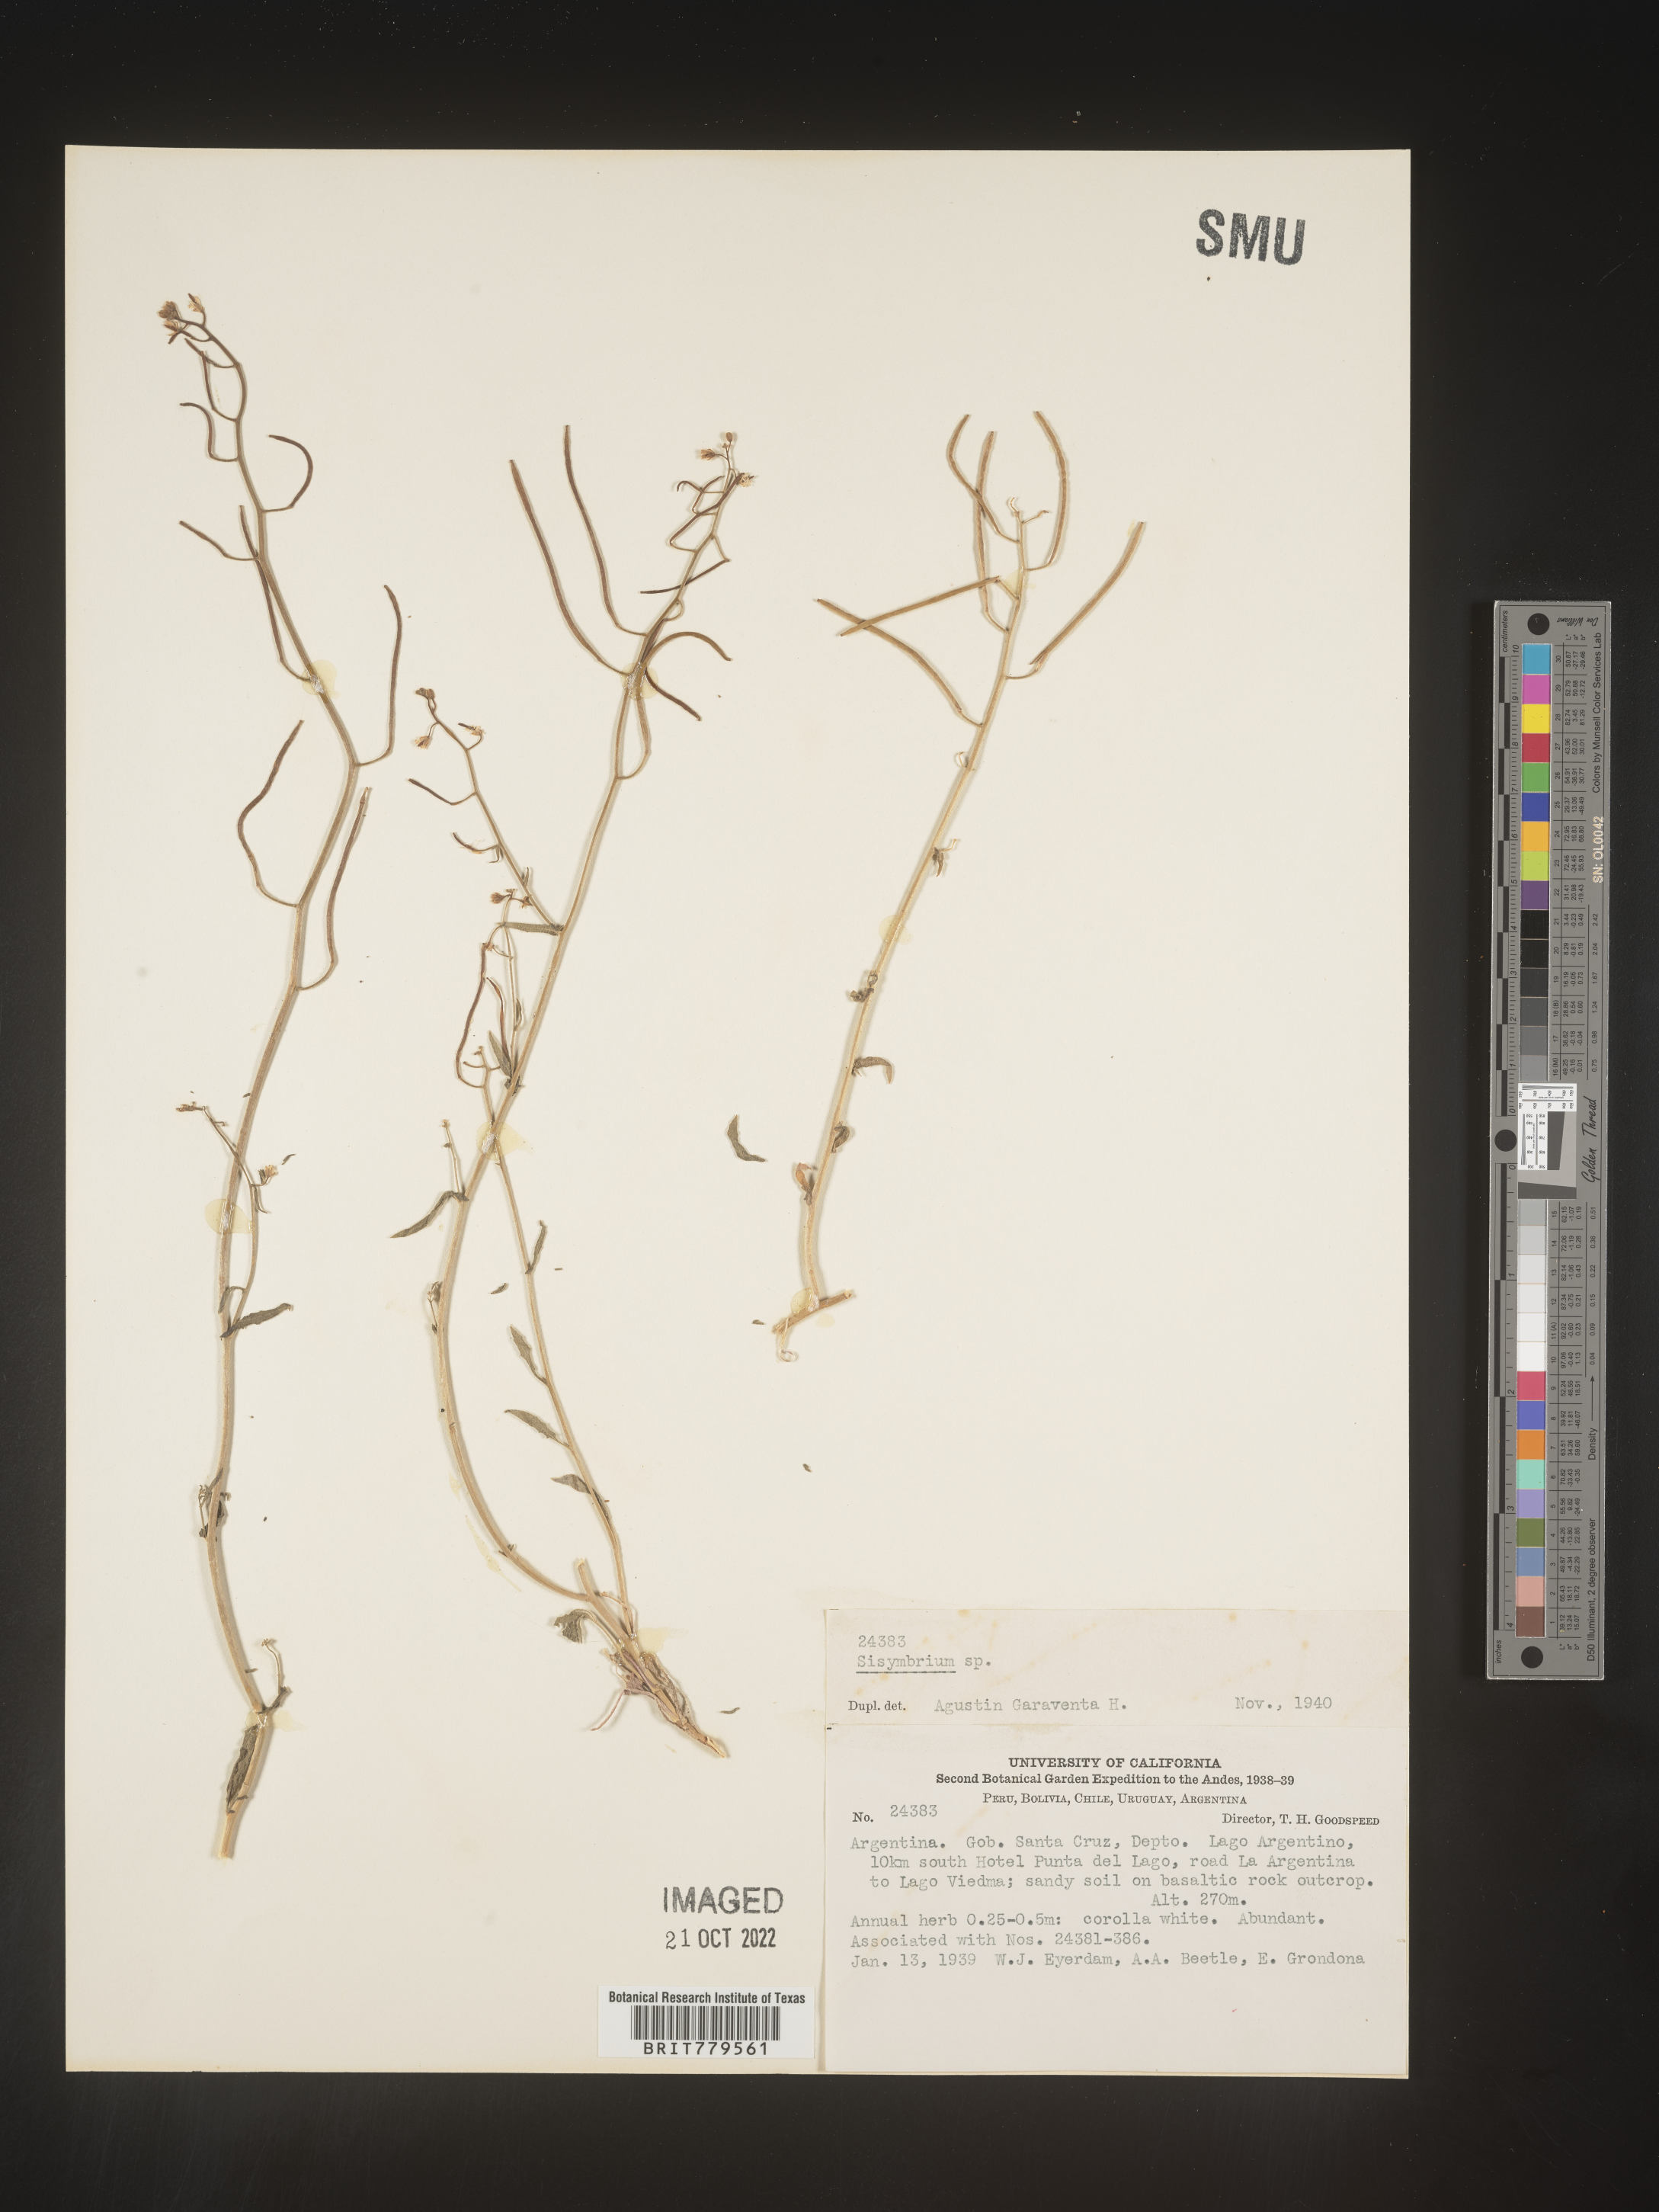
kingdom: Plantae
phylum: Tracheophyta
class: Magnoliopsida
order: Brassicales
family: Brassicaceae
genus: Sisymbrium
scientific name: Sisymbrium
